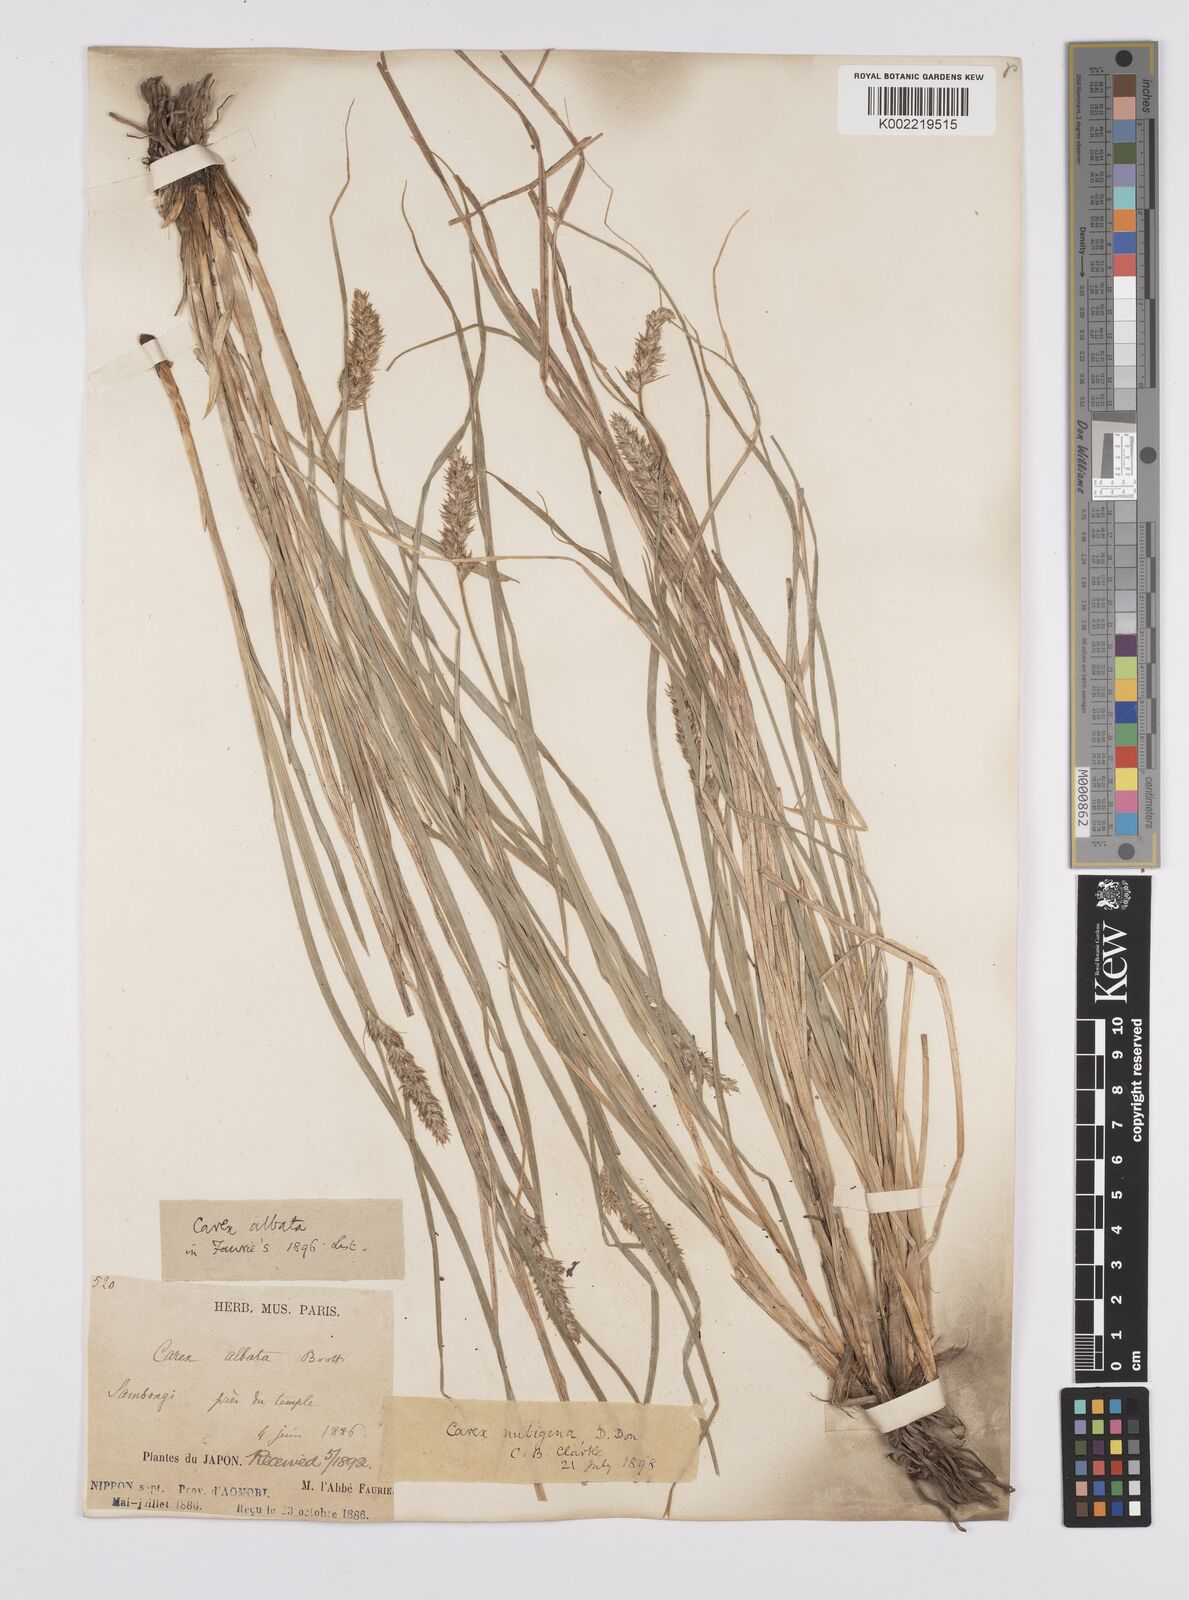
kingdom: Plantae
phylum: Tracheophyta
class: Liliopsida
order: Poales
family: Cyperaceae
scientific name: Cyperaceae
